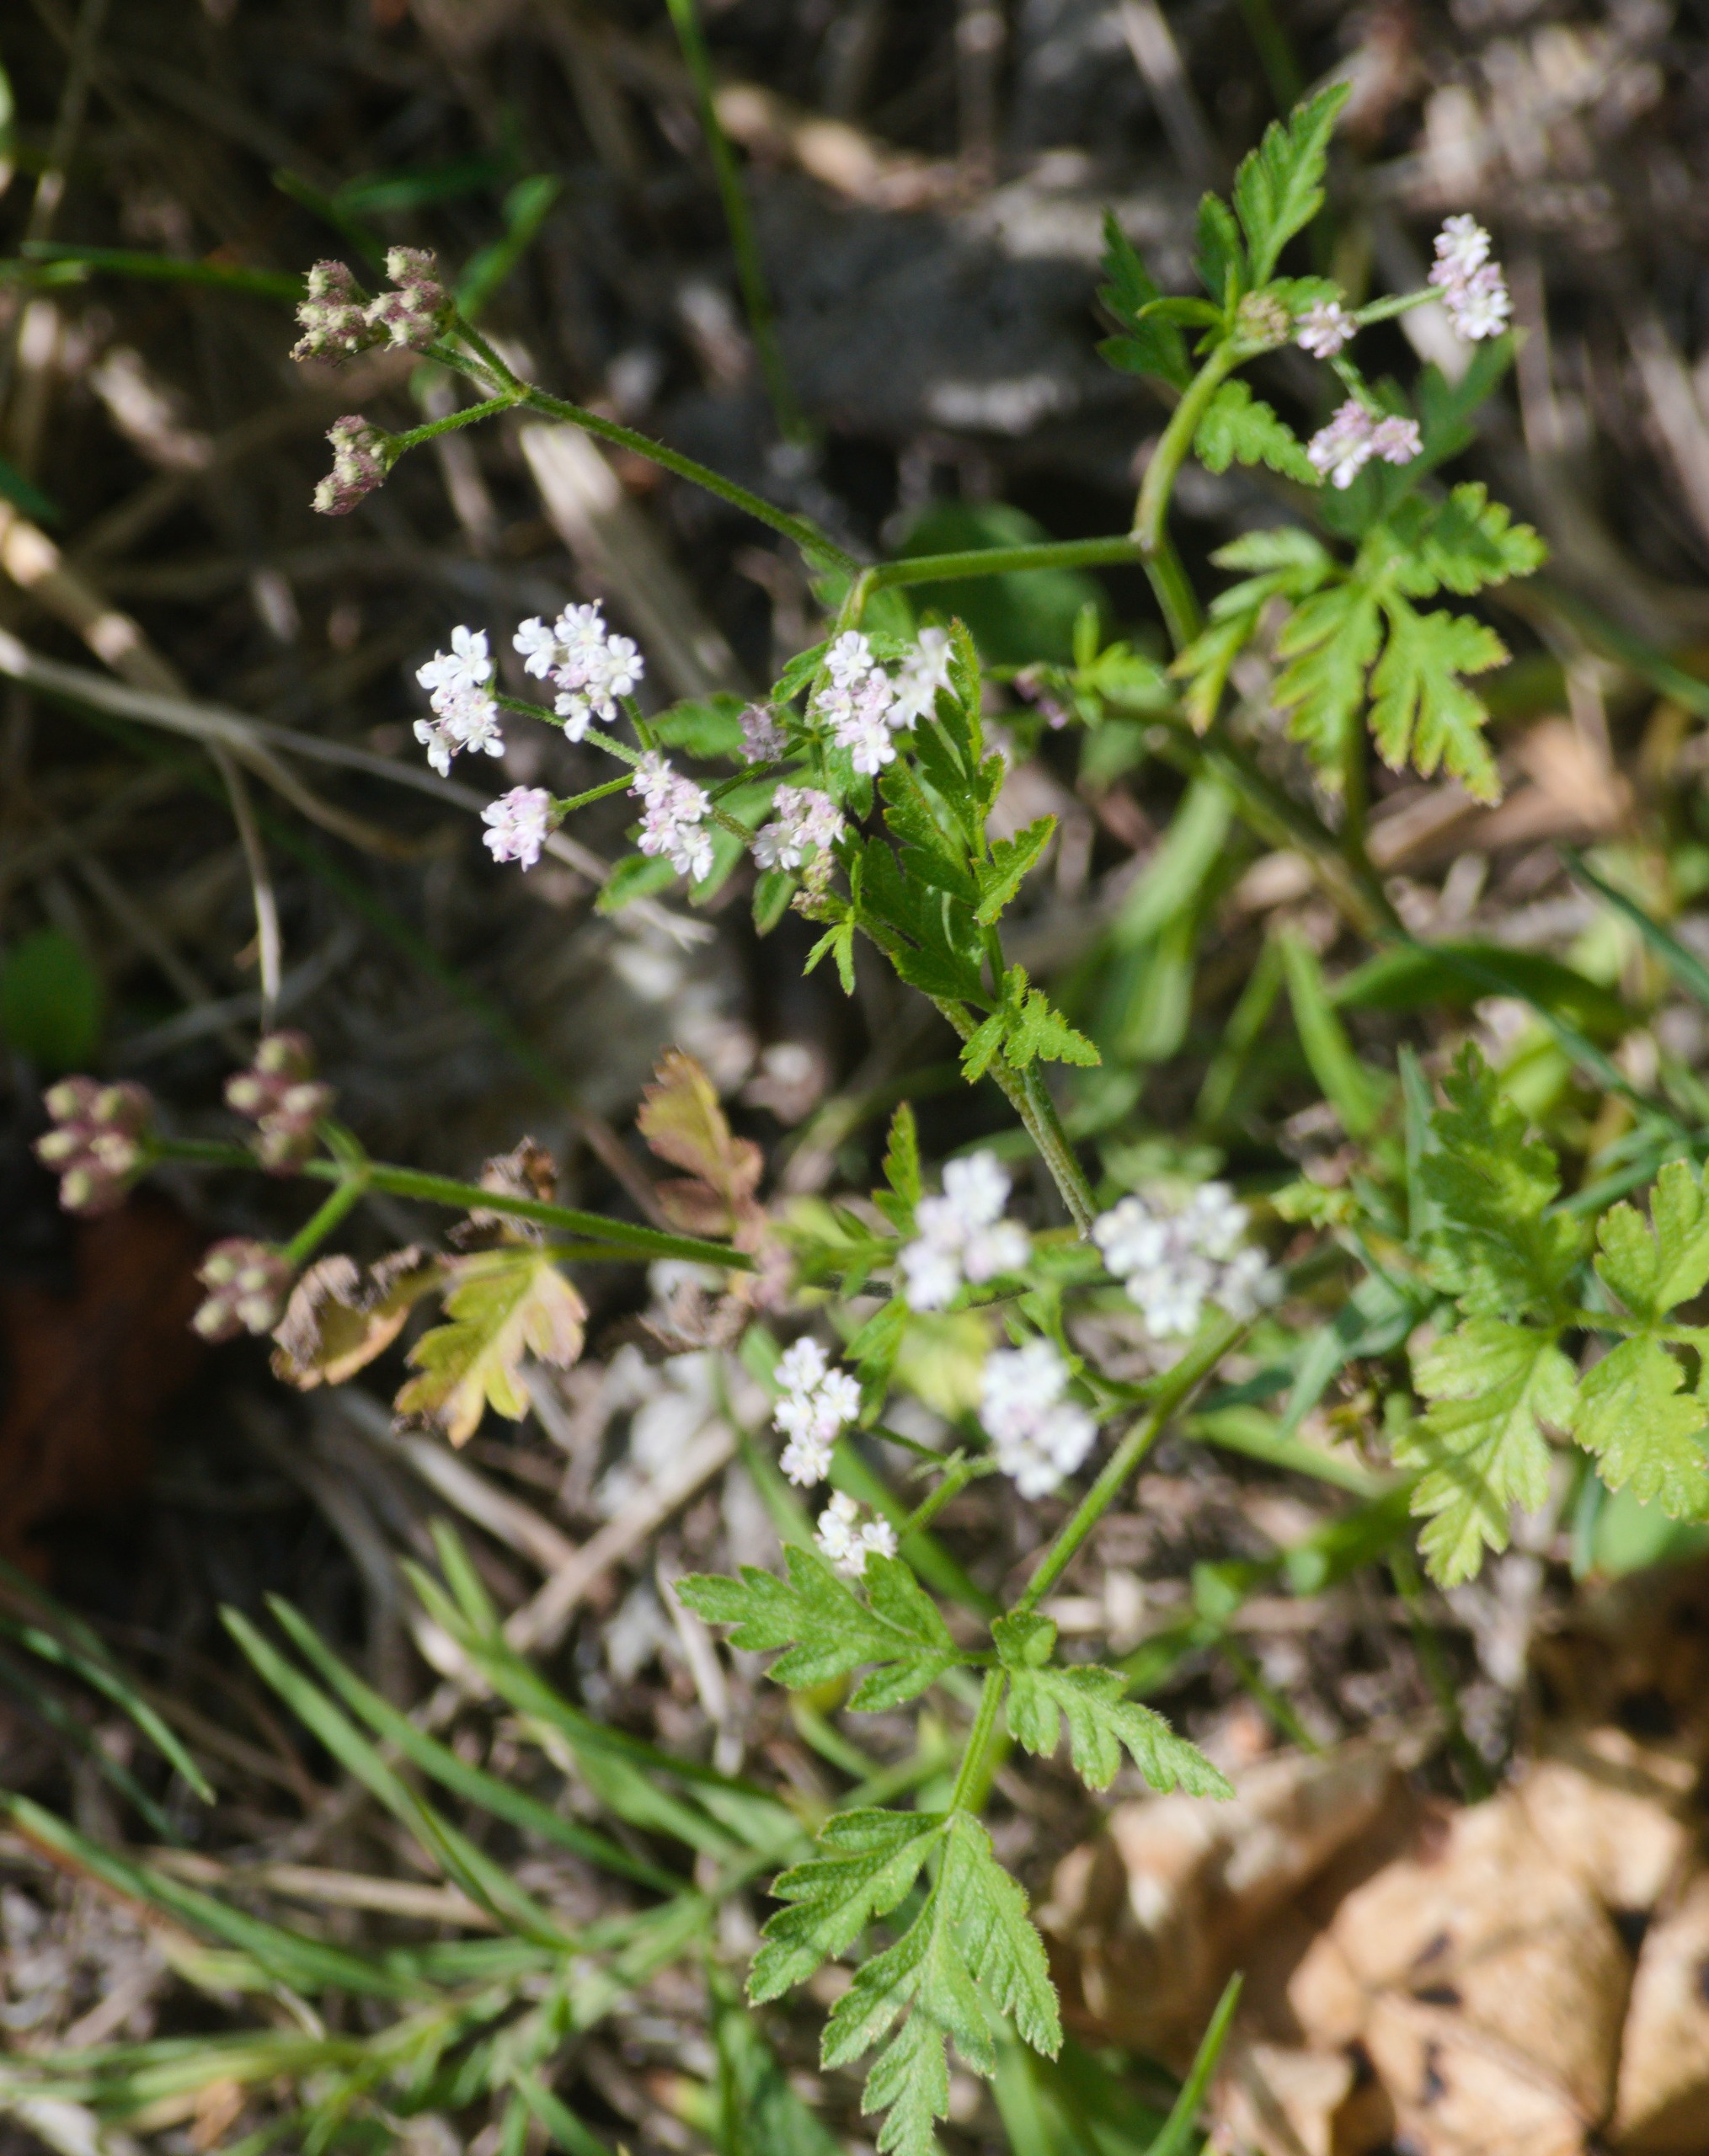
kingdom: Plantae
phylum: Tracheophyta
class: Magnoliopsida
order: Apiales
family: Apiaceae
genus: Torilis
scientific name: Torilis japonica
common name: Hvas randfrø
